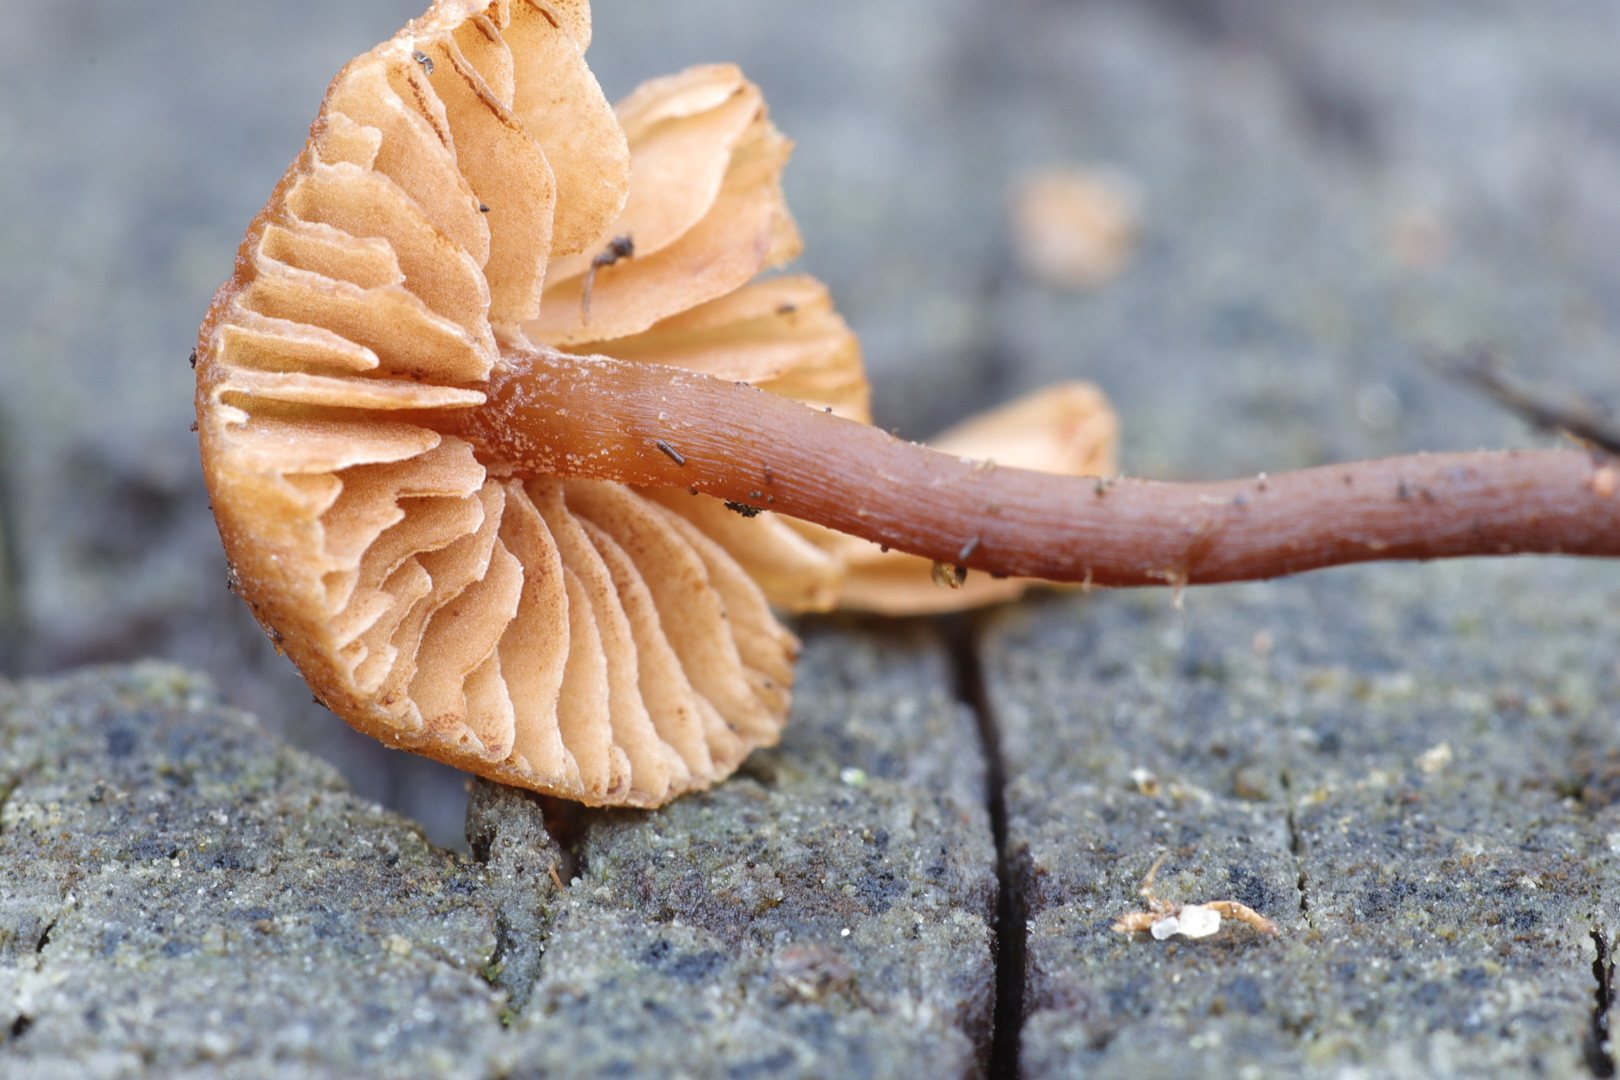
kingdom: Fungi
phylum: Basidiomycota
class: Agaricomycetes
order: Agaricales
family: Hymenogastraceae
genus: Naucoria
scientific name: Naucoria
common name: knaphat
